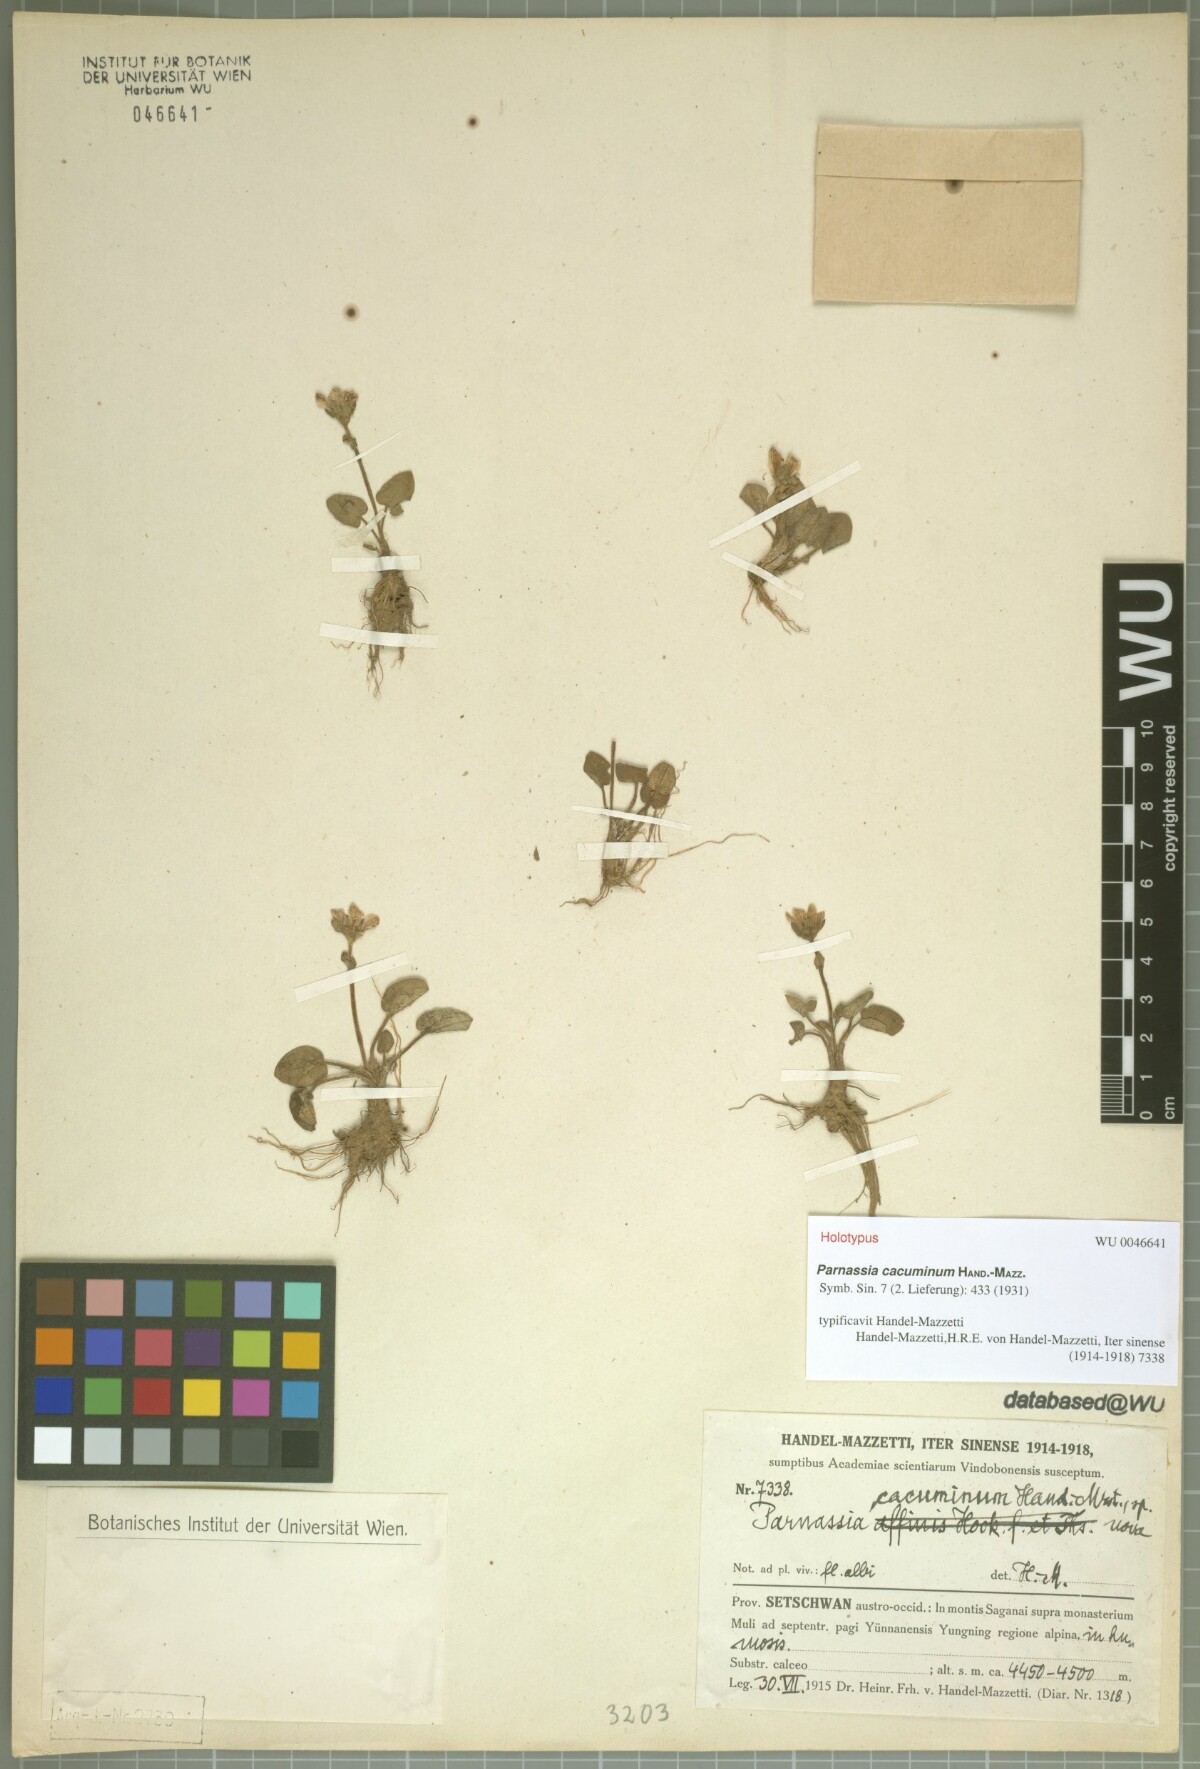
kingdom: Plantae
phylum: Tracheophyta
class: Magnoliopsida
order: Celastrales
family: Parnassiaceae
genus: Parnassia
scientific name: Parnassia cacuminum
